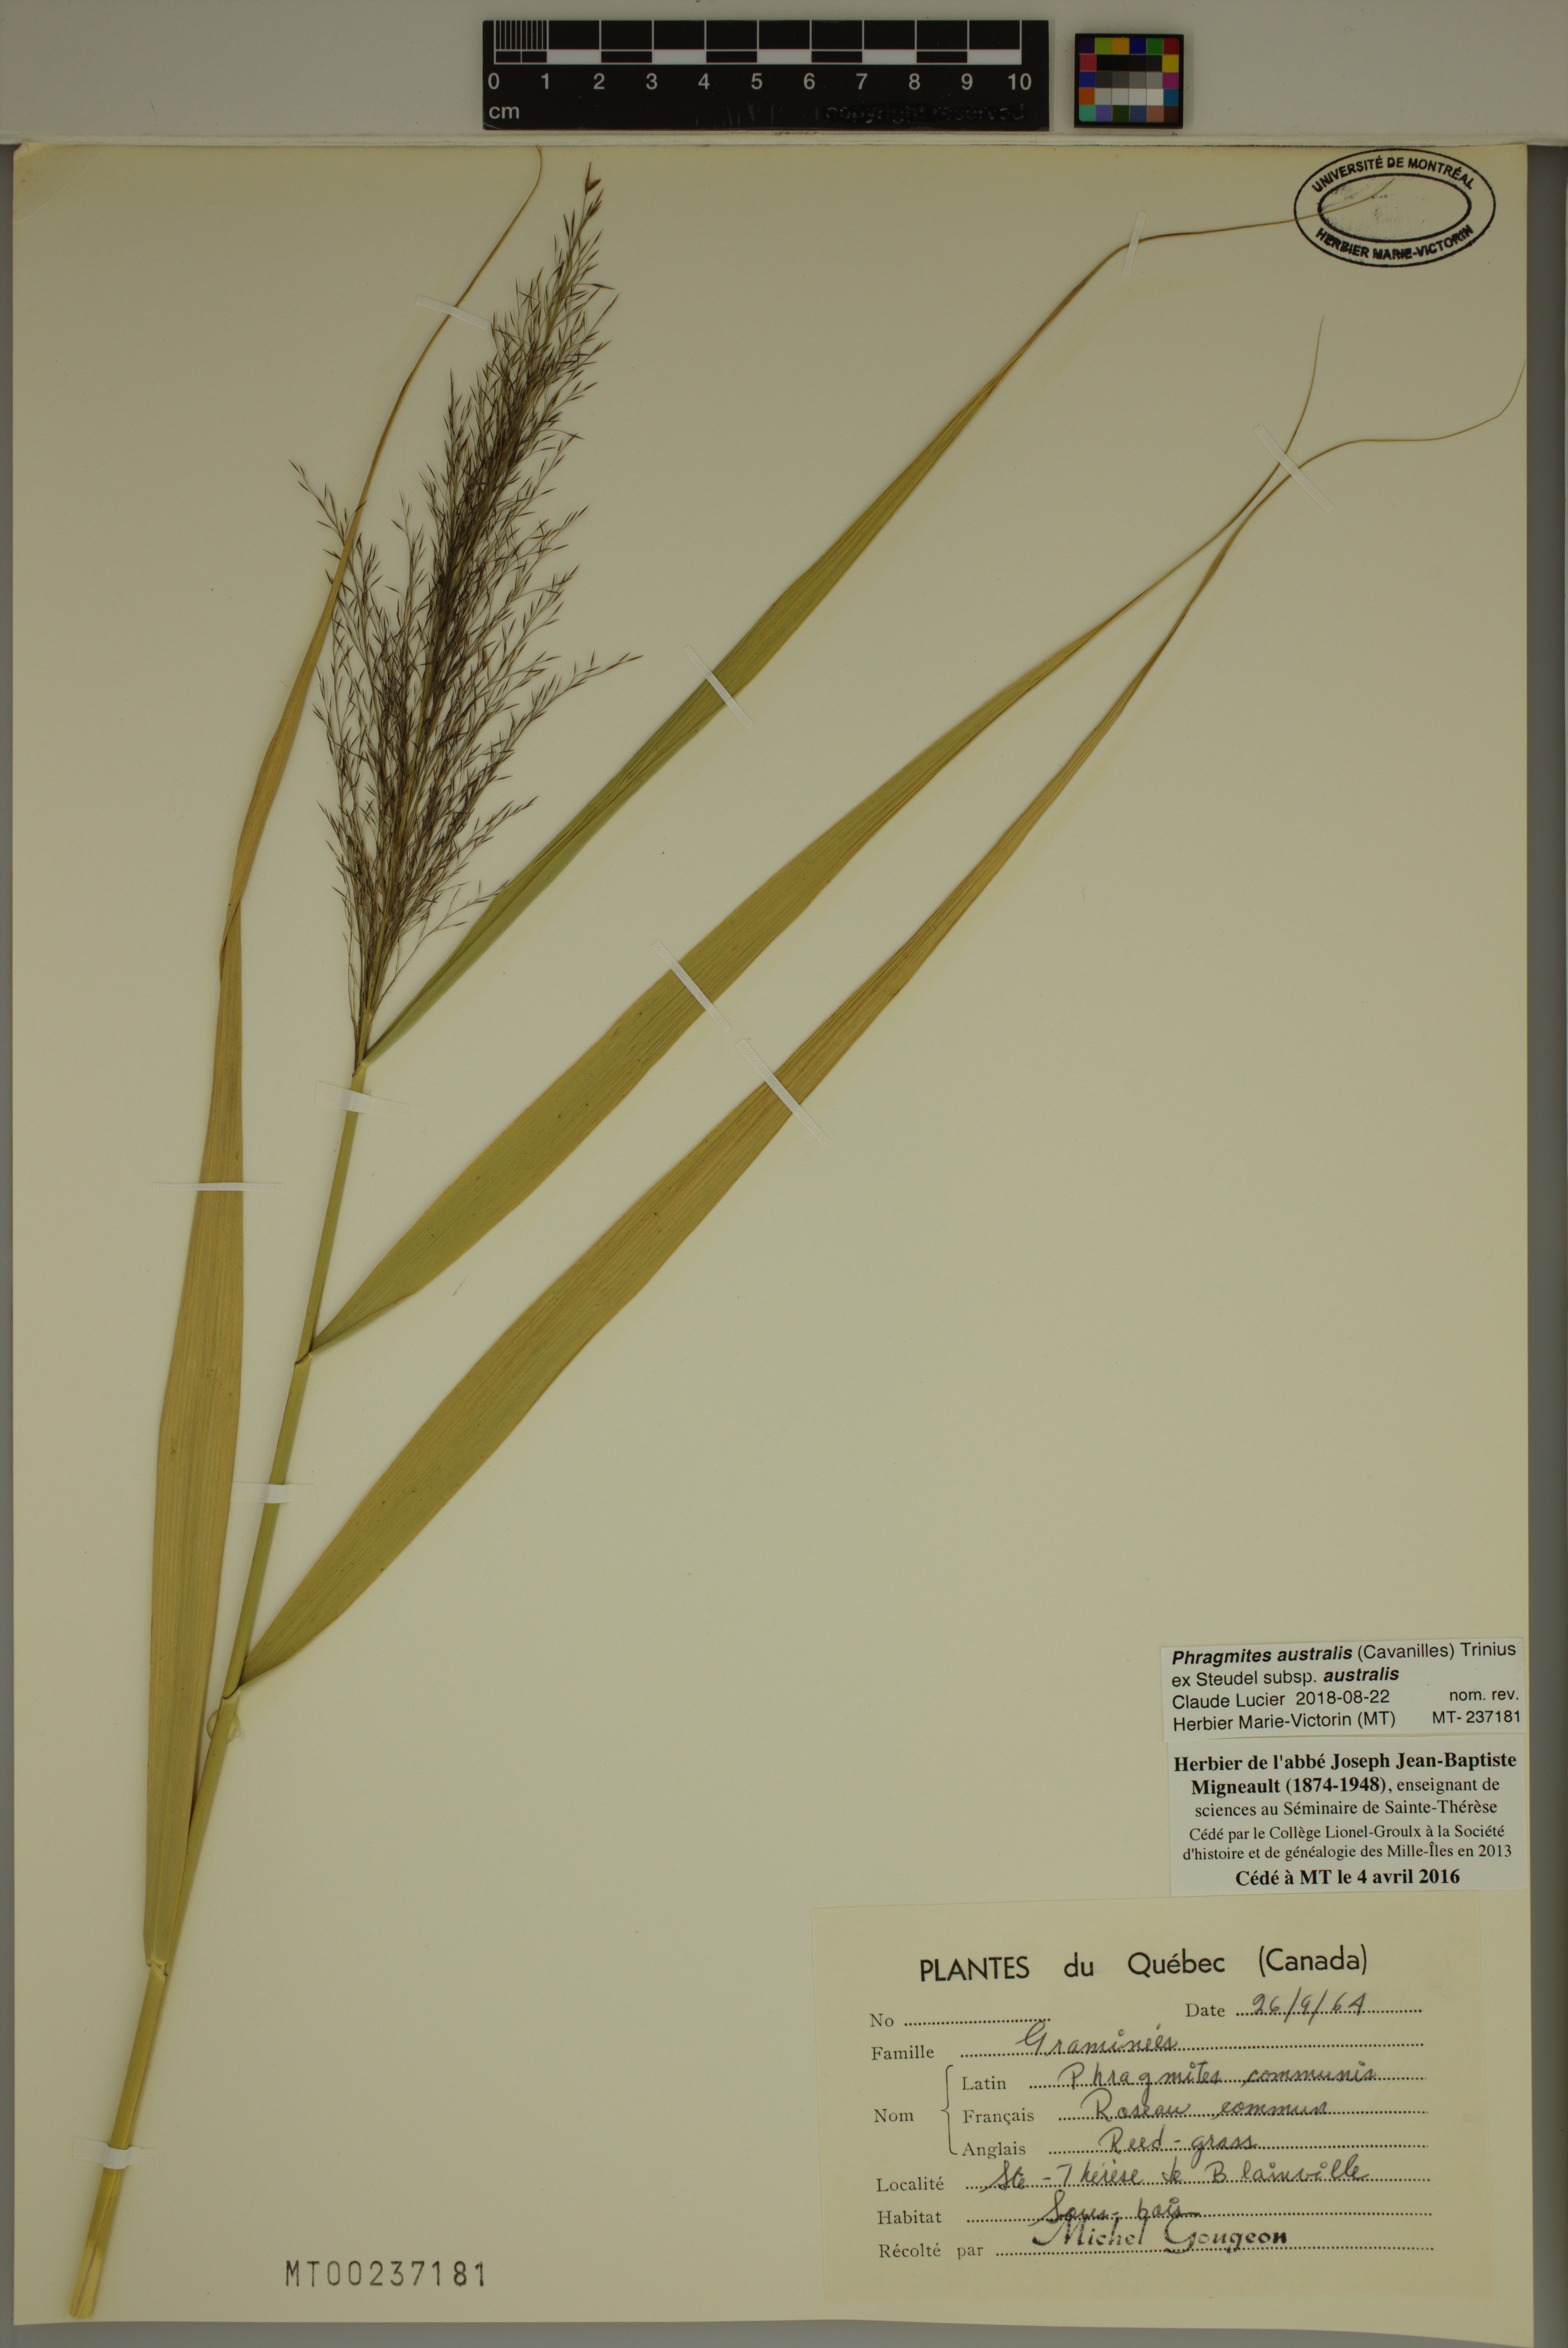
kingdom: Plantae
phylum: Tracheophyta
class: Liliopsida
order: Poales
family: Poaceae
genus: Phragmites
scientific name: Phragmites australis
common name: Common reed
